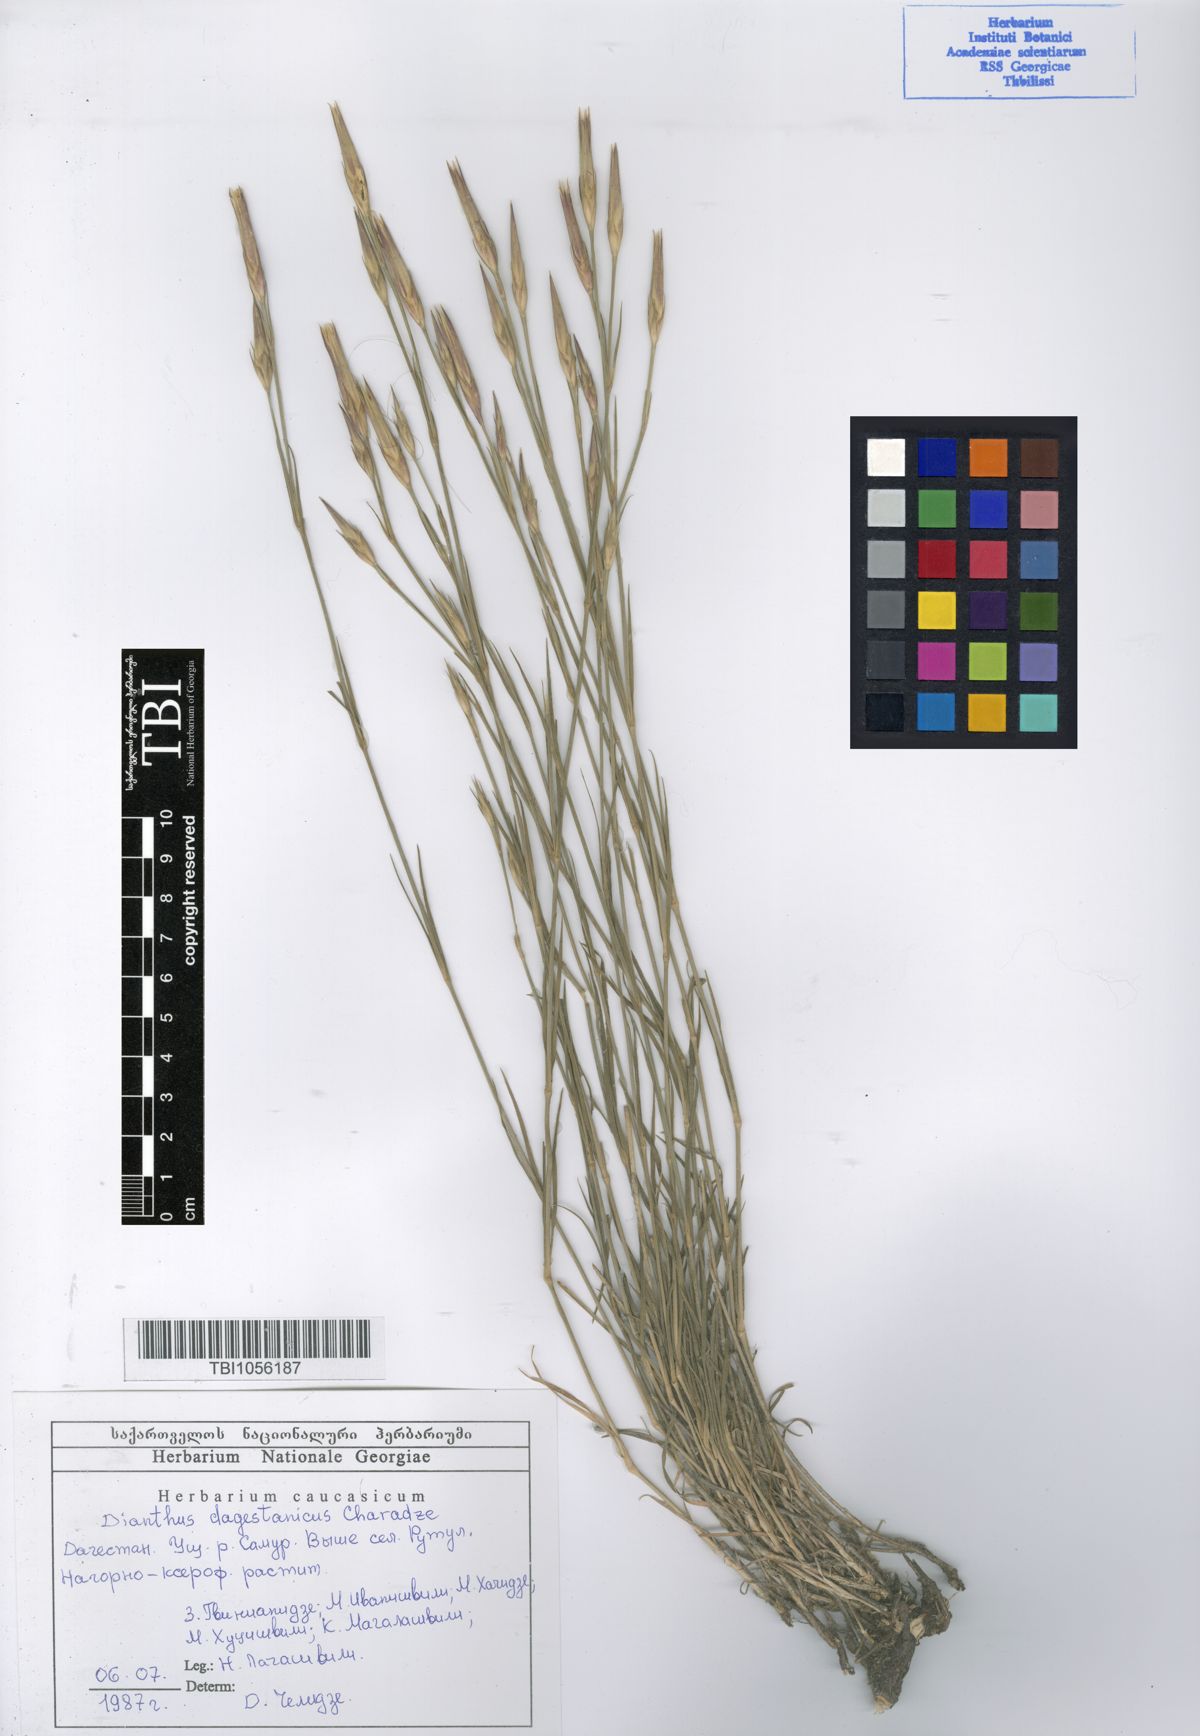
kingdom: Plantae
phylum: Tracheophyta
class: Magnoliopsida
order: Caryophyllales
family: Caryophyllaceae
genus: Dianthus
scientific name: Dianthus daghestanicus
